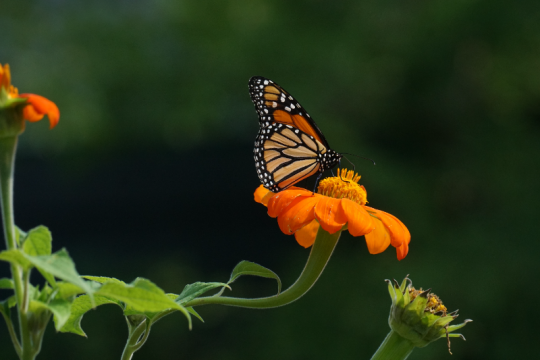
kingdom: Animalia
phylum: Arthropoda
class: Insecta
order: Lepidoptera
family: Nymphalidae
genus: Danaus
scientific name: Danaus plexippus
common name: Monarch
